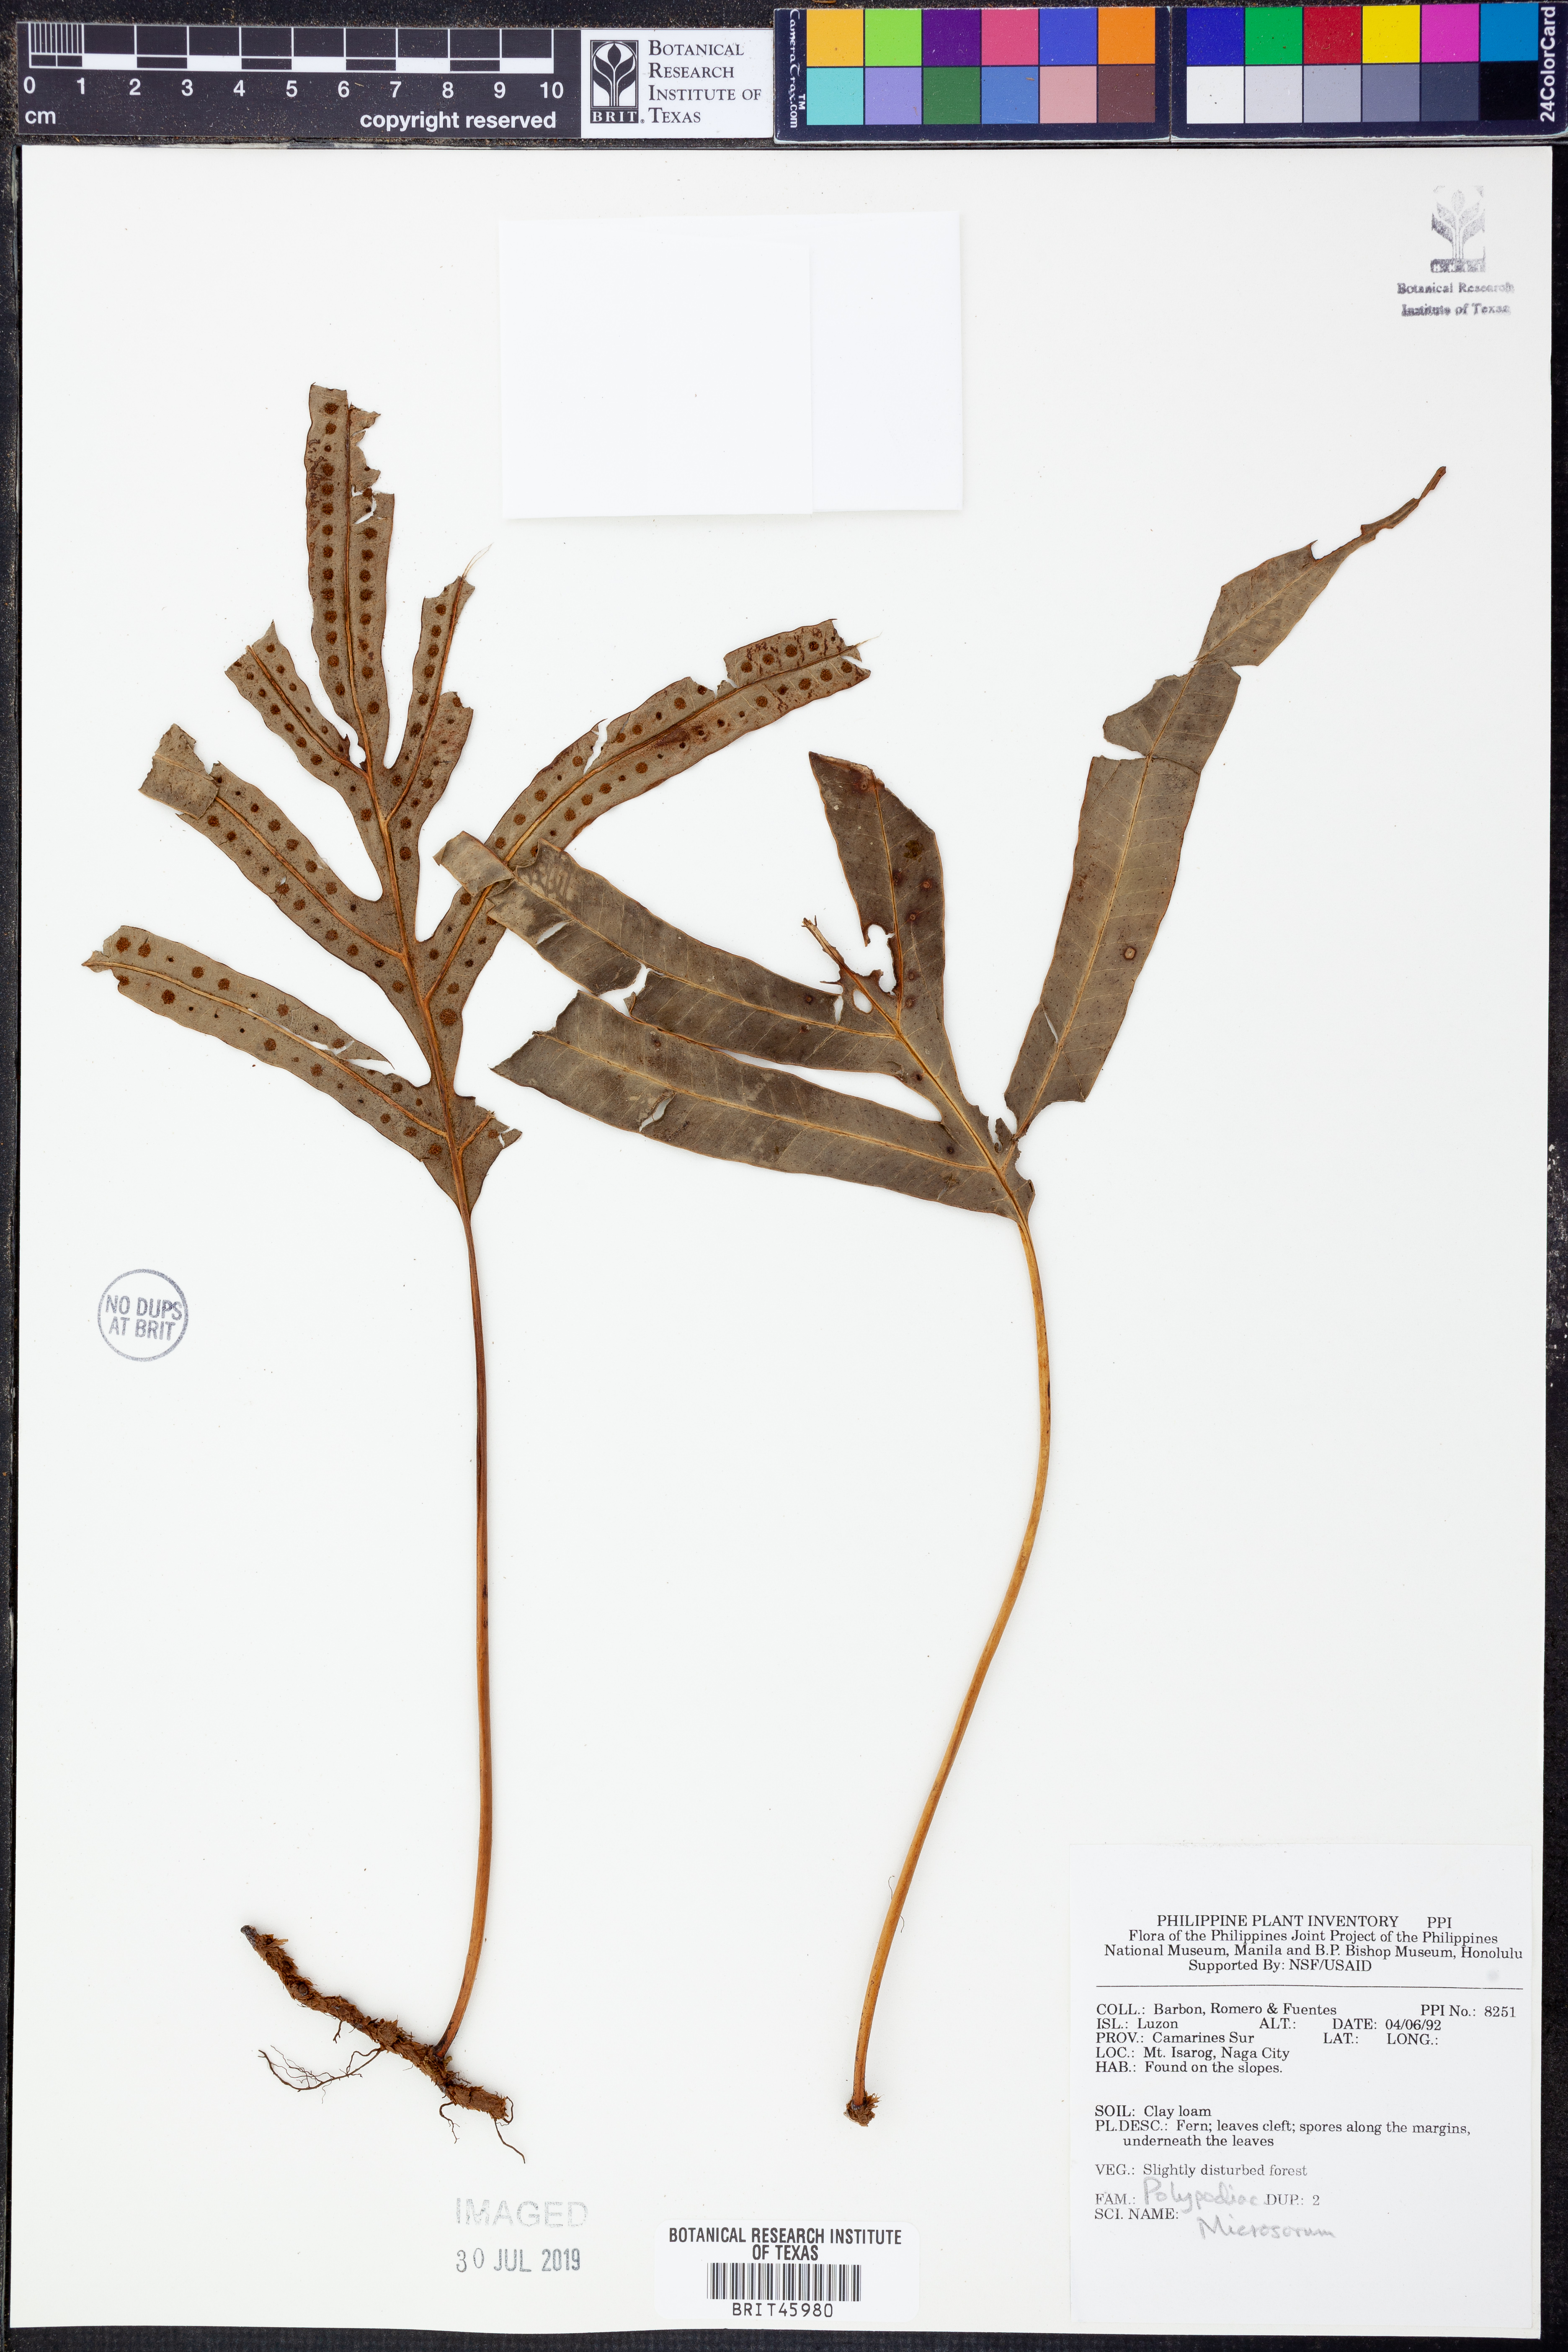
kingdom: Plantae
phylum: Tracheophyta
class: Polypodiopsida
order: Polypodiales
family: Polypodiaceae
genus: Microsorum
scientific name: Microsorum
